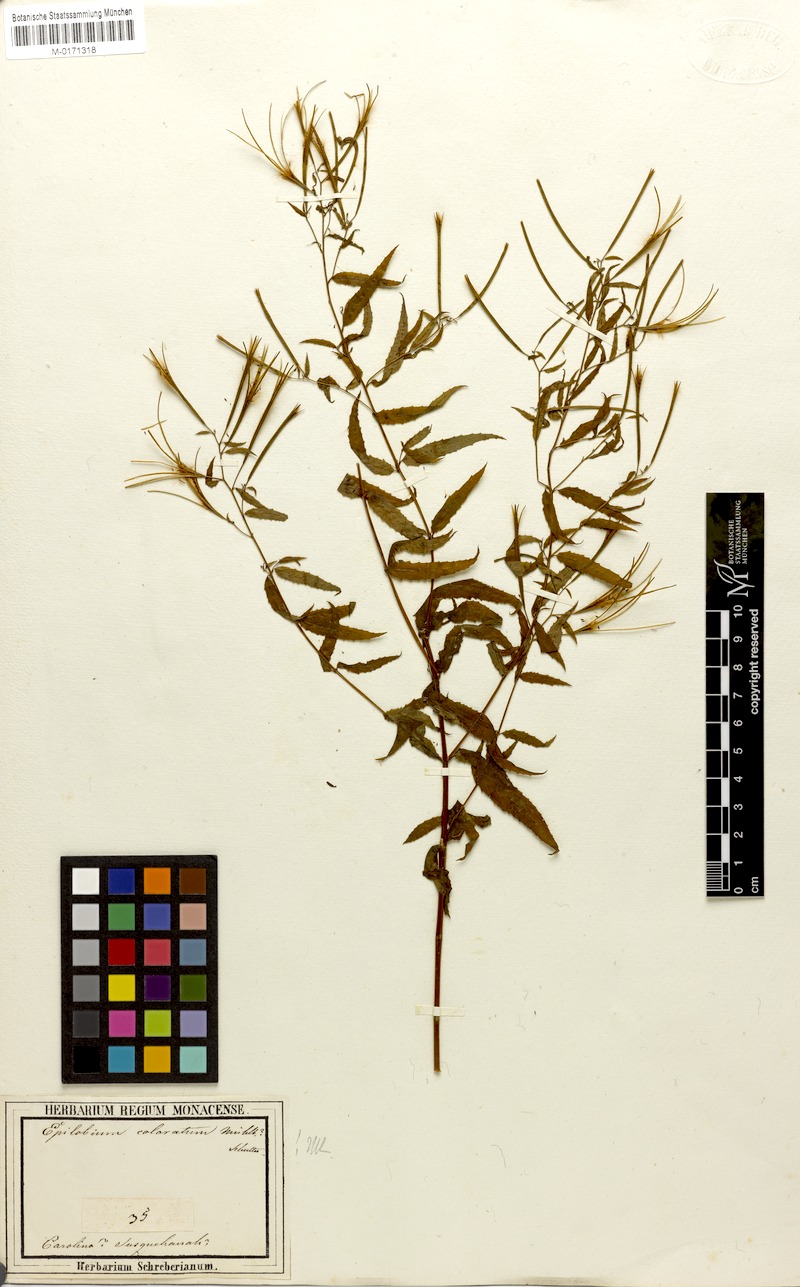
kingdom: Plantae
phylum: Tracheophyta
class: Magnoliopsida
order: Myrtales
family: Onagraceae
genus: Epilobium
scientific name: Epilobium coloratum
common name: Bronze willowherb
